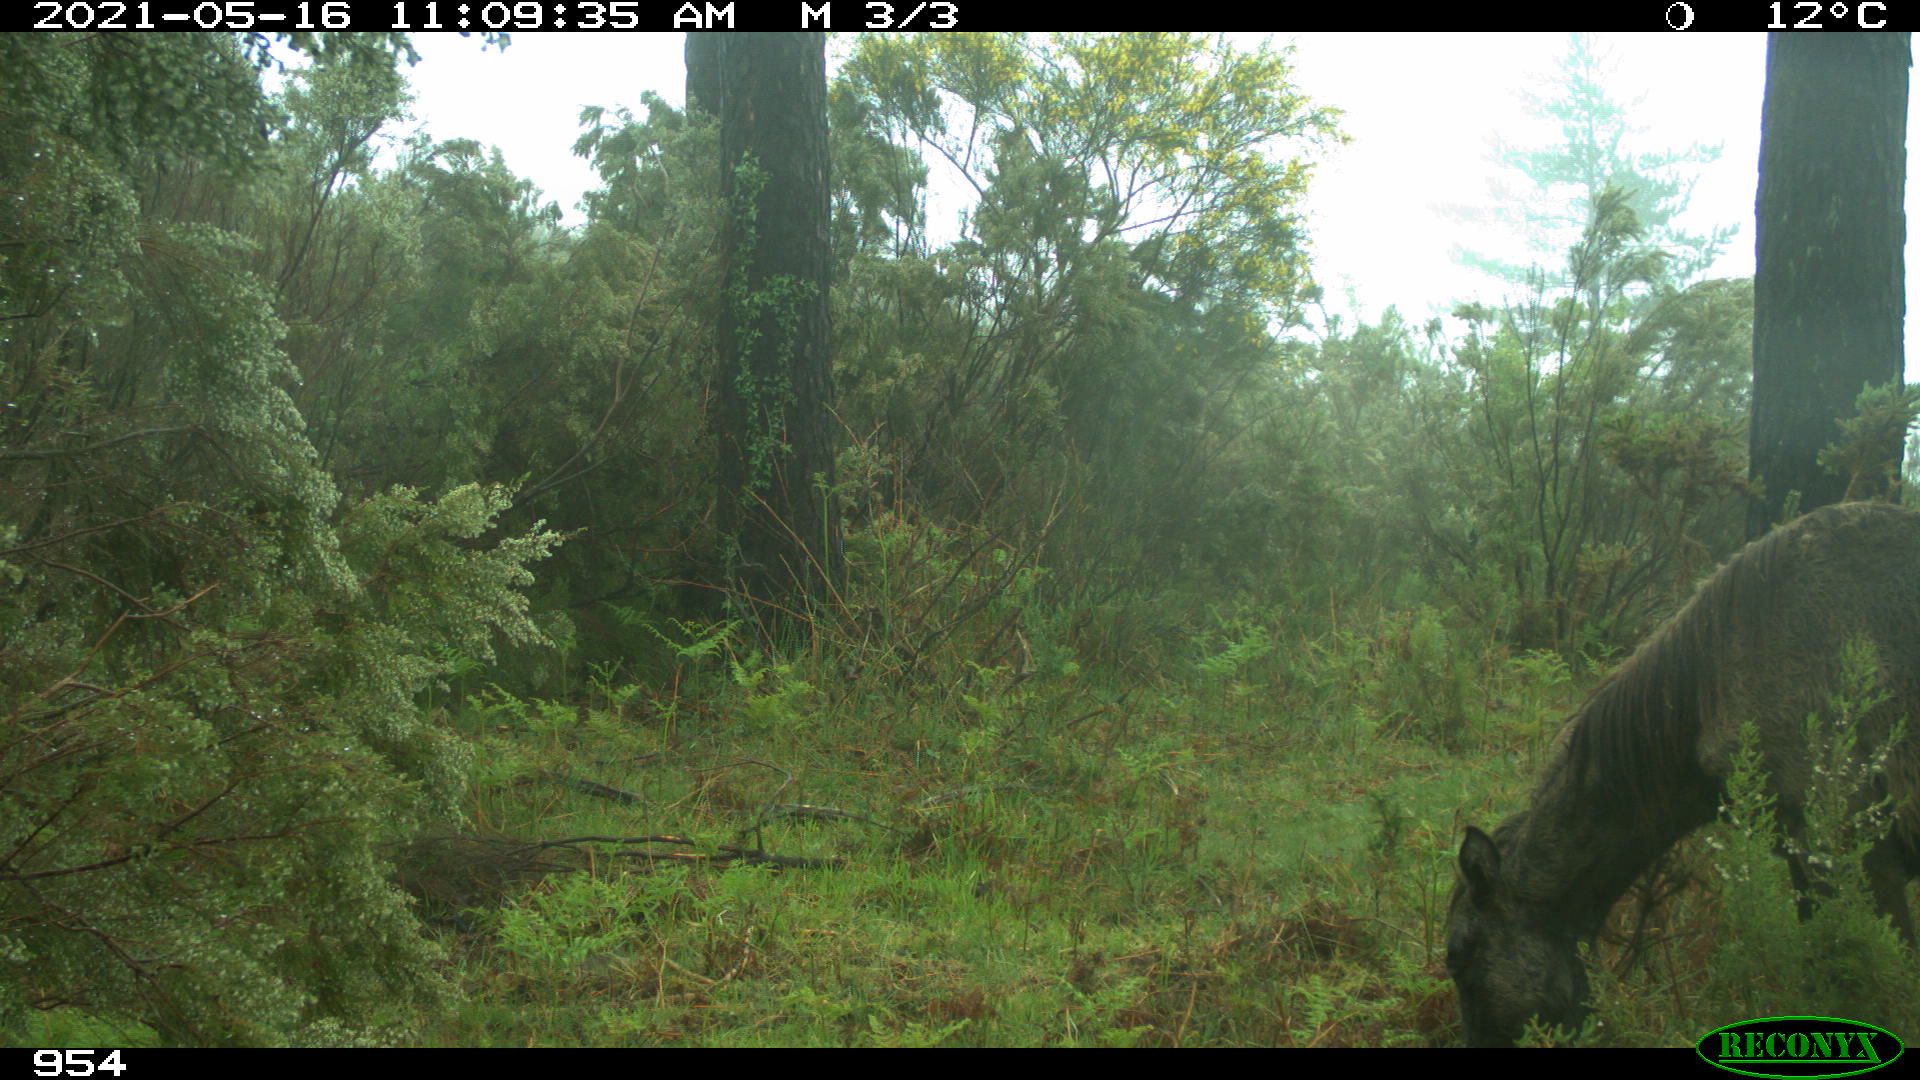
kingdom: Animalia
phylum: Chordata
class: Mammalia
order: Perissodactyla
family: Equidae
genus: Equus
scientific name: Equus caballus
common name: Horse
